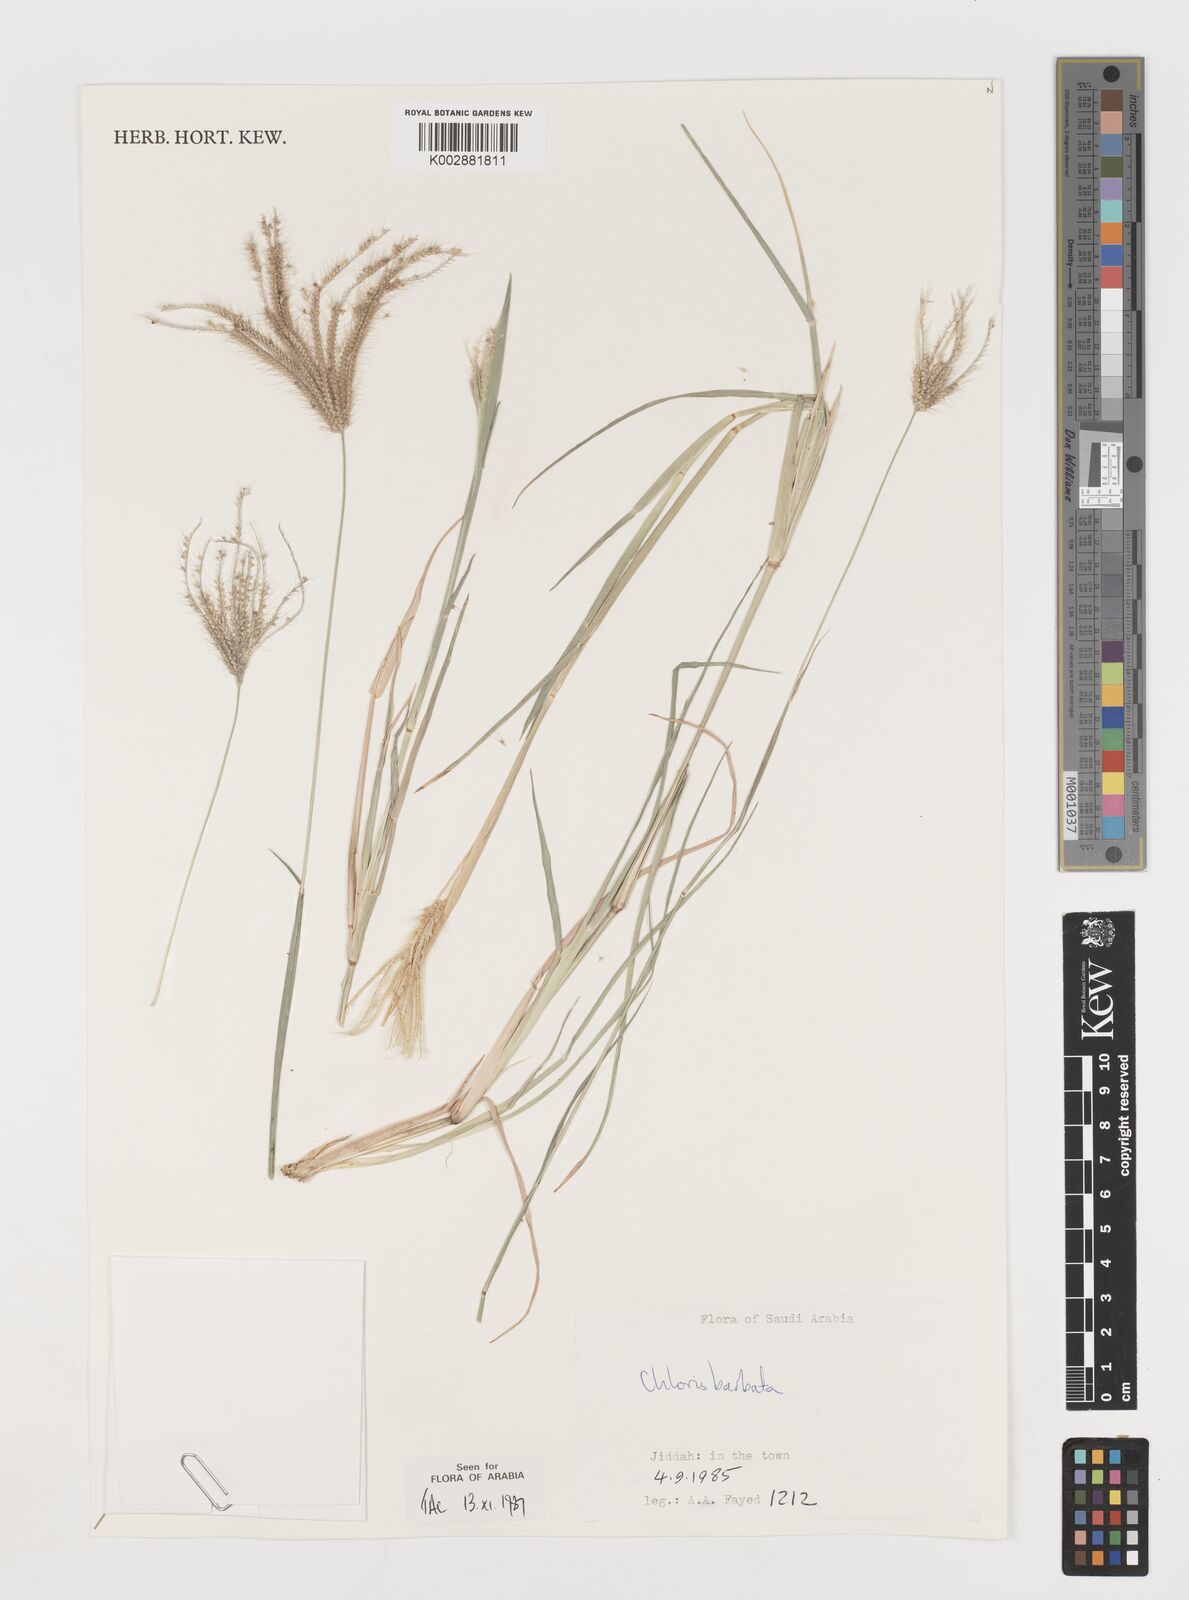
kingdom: Plantae
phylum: Tracheophyta
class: Liliopsida
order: Poales
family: Poaceae
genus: Chloris
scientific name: Chloris barbata
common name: Swollen fingergrass
